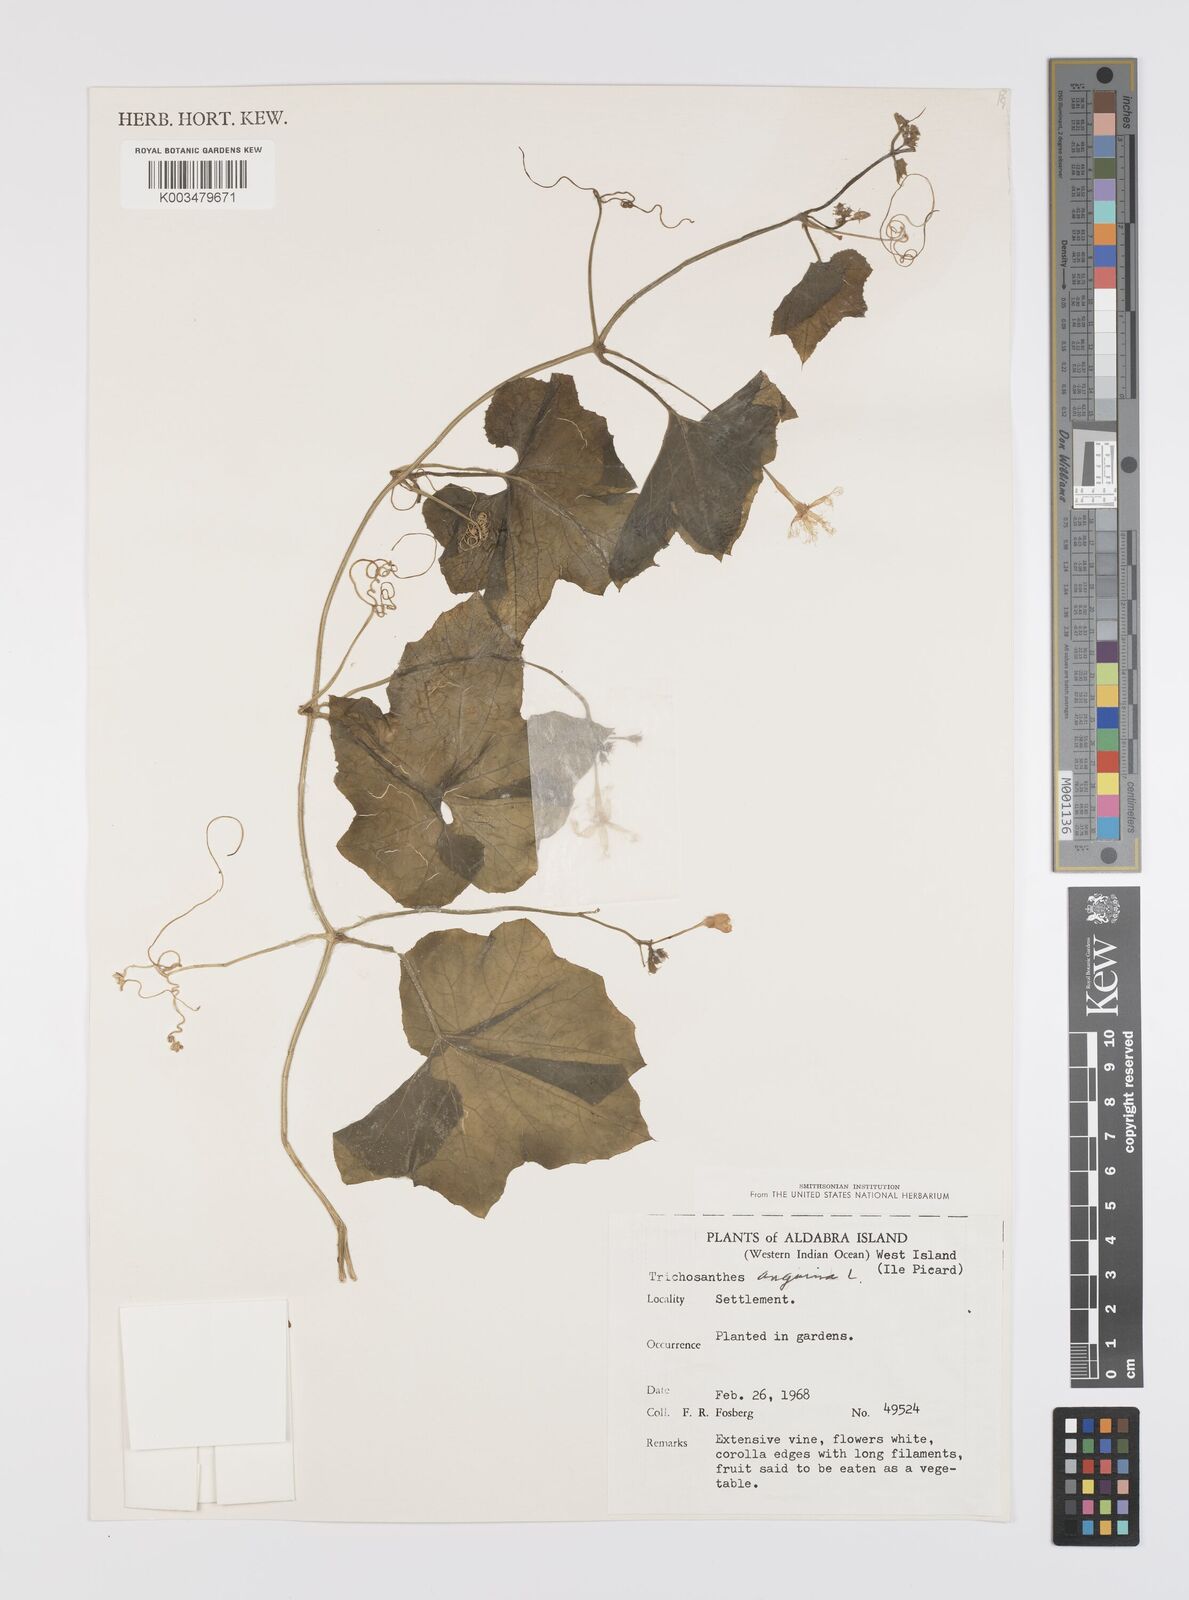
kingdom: Plantae
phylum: Tracheophyta
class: Magnoliopsida
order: Cucurbitales
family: Cucurbitaceae
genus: Trichosanthes
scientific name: Trichosanthes cucumerina
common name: Snakegourd
